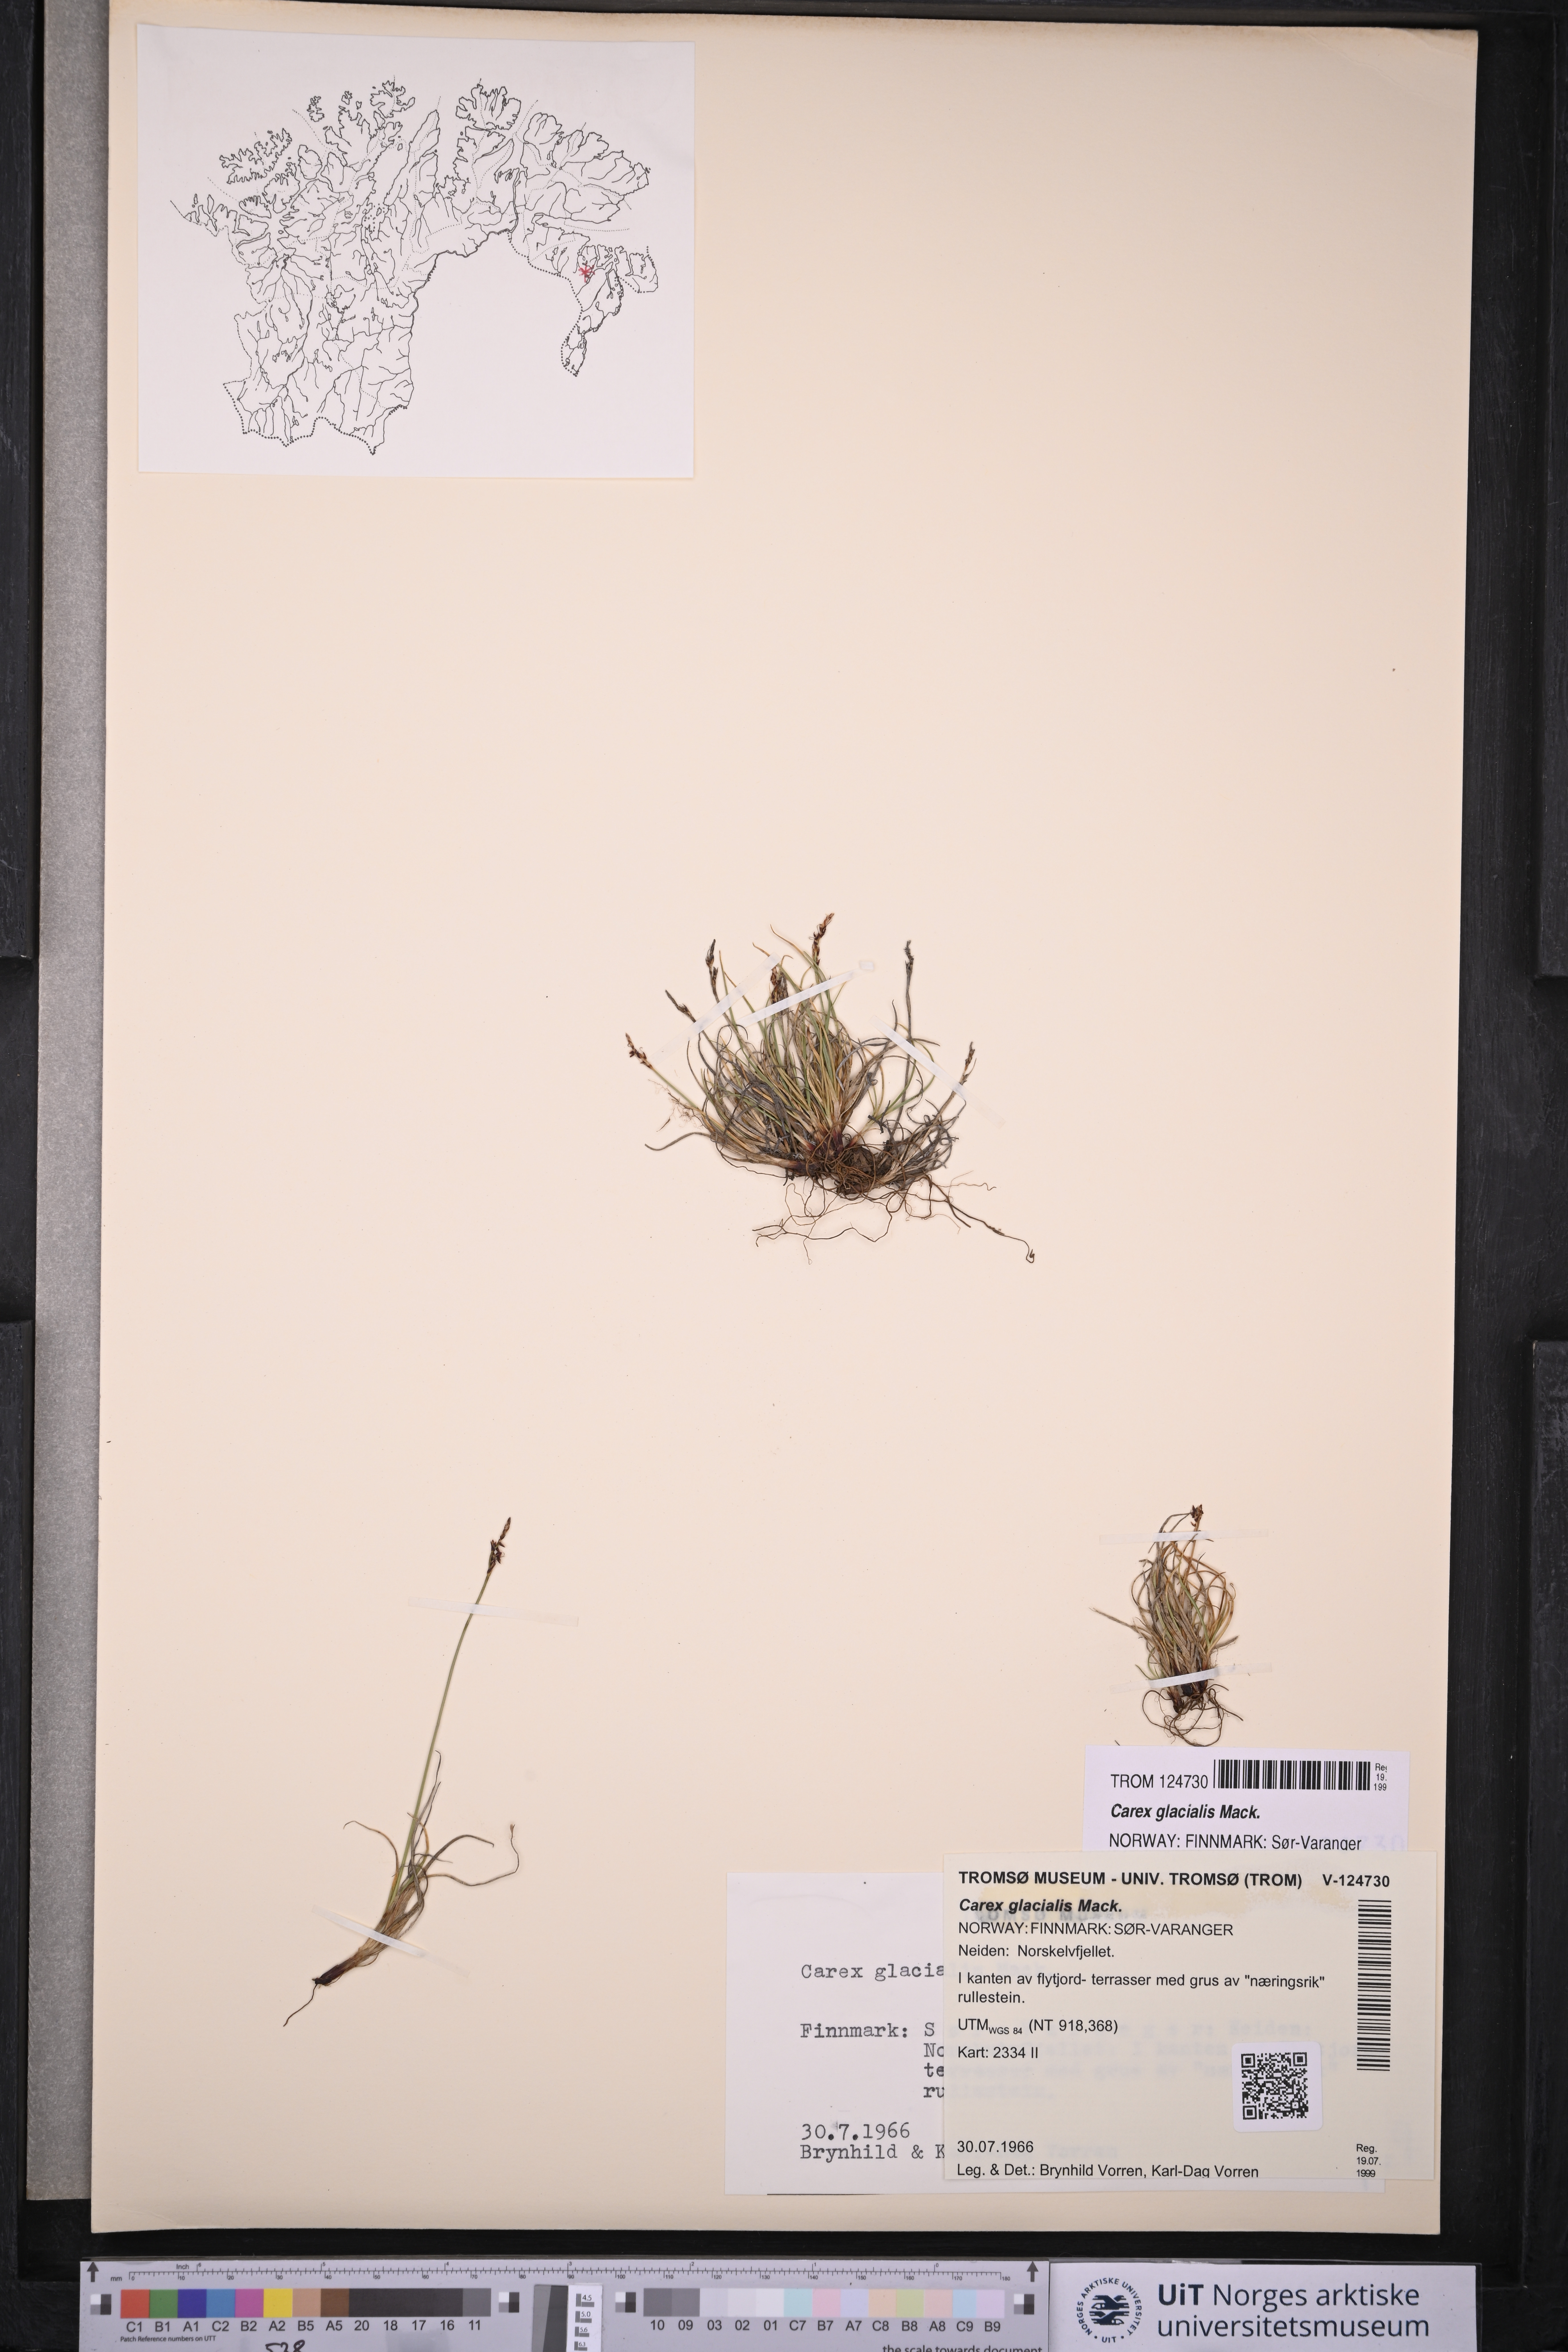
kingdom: Plantae
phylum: Tracheophyta
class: Liliopsida
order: Poales
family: Cyperaceae
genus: Carex
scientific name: Carex glacialis
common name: Newfoundland sedge
